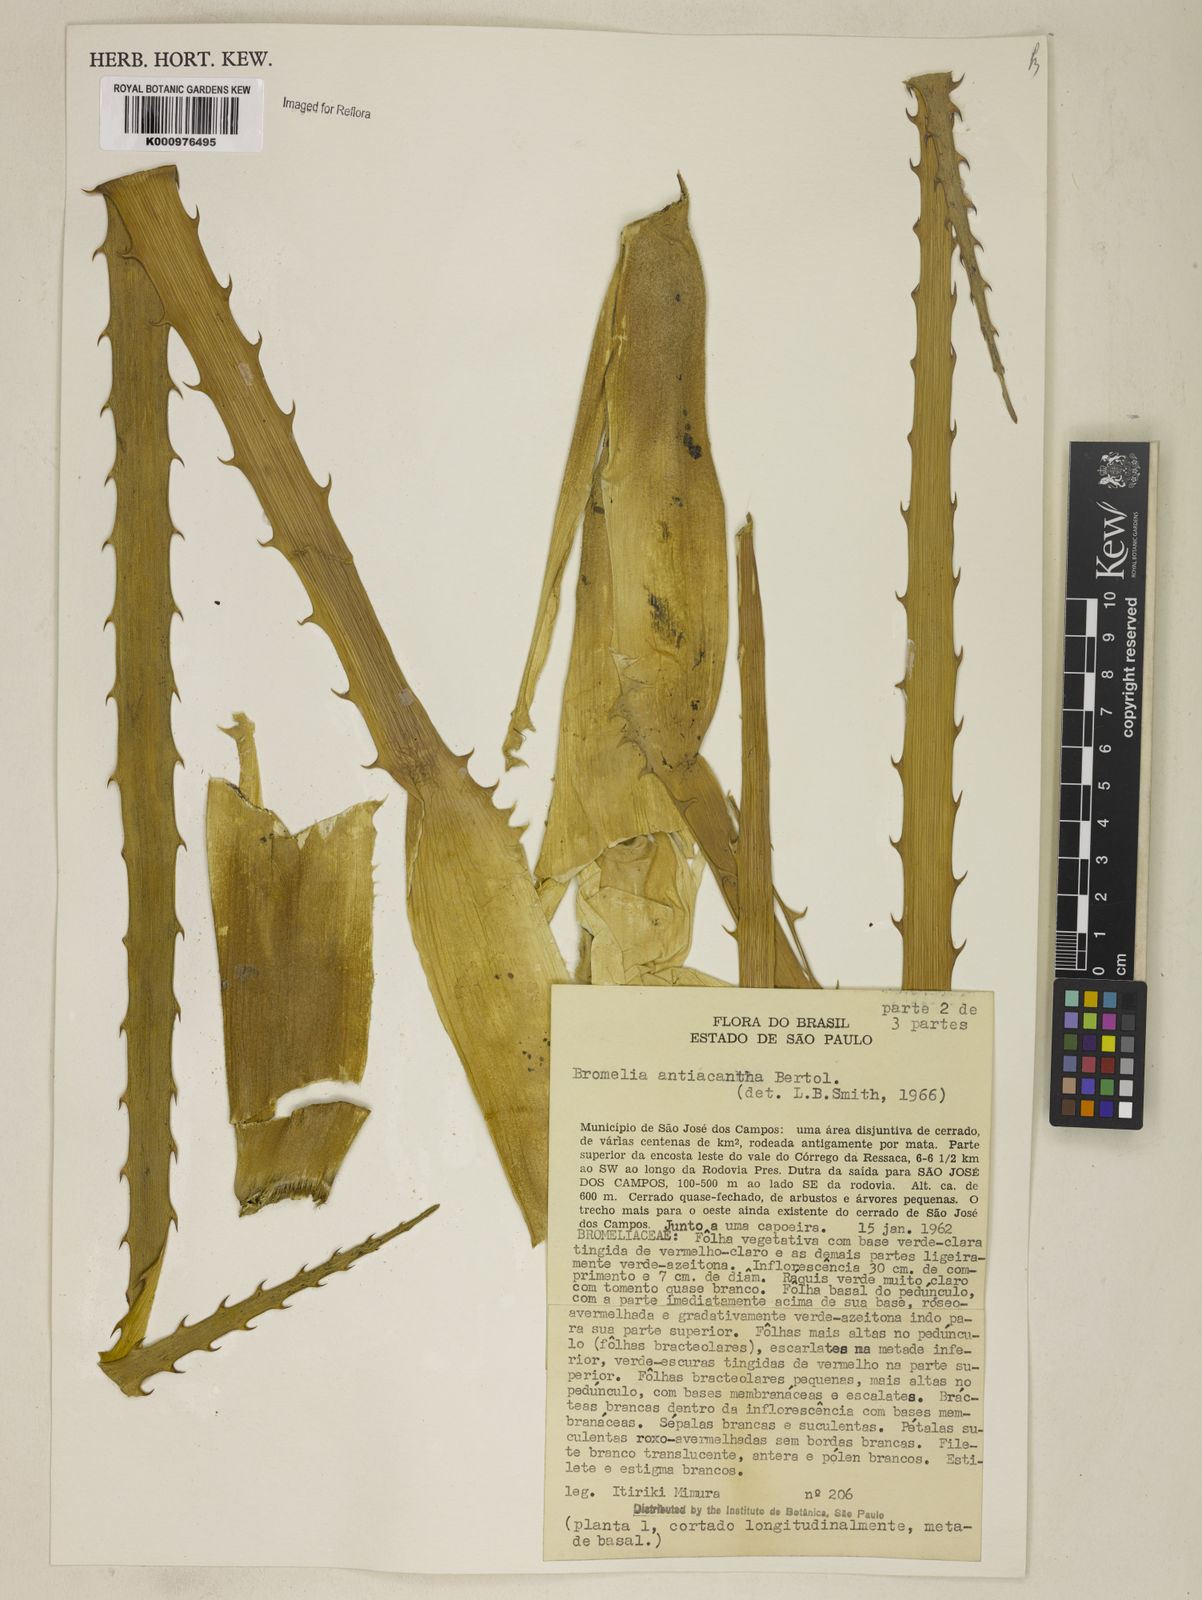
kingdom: Plantae
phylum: Tracheophyta
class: Liliopsida
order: Poales
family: Bromeliaceae
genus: Bromelia
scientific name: Bromelia antiacantha
